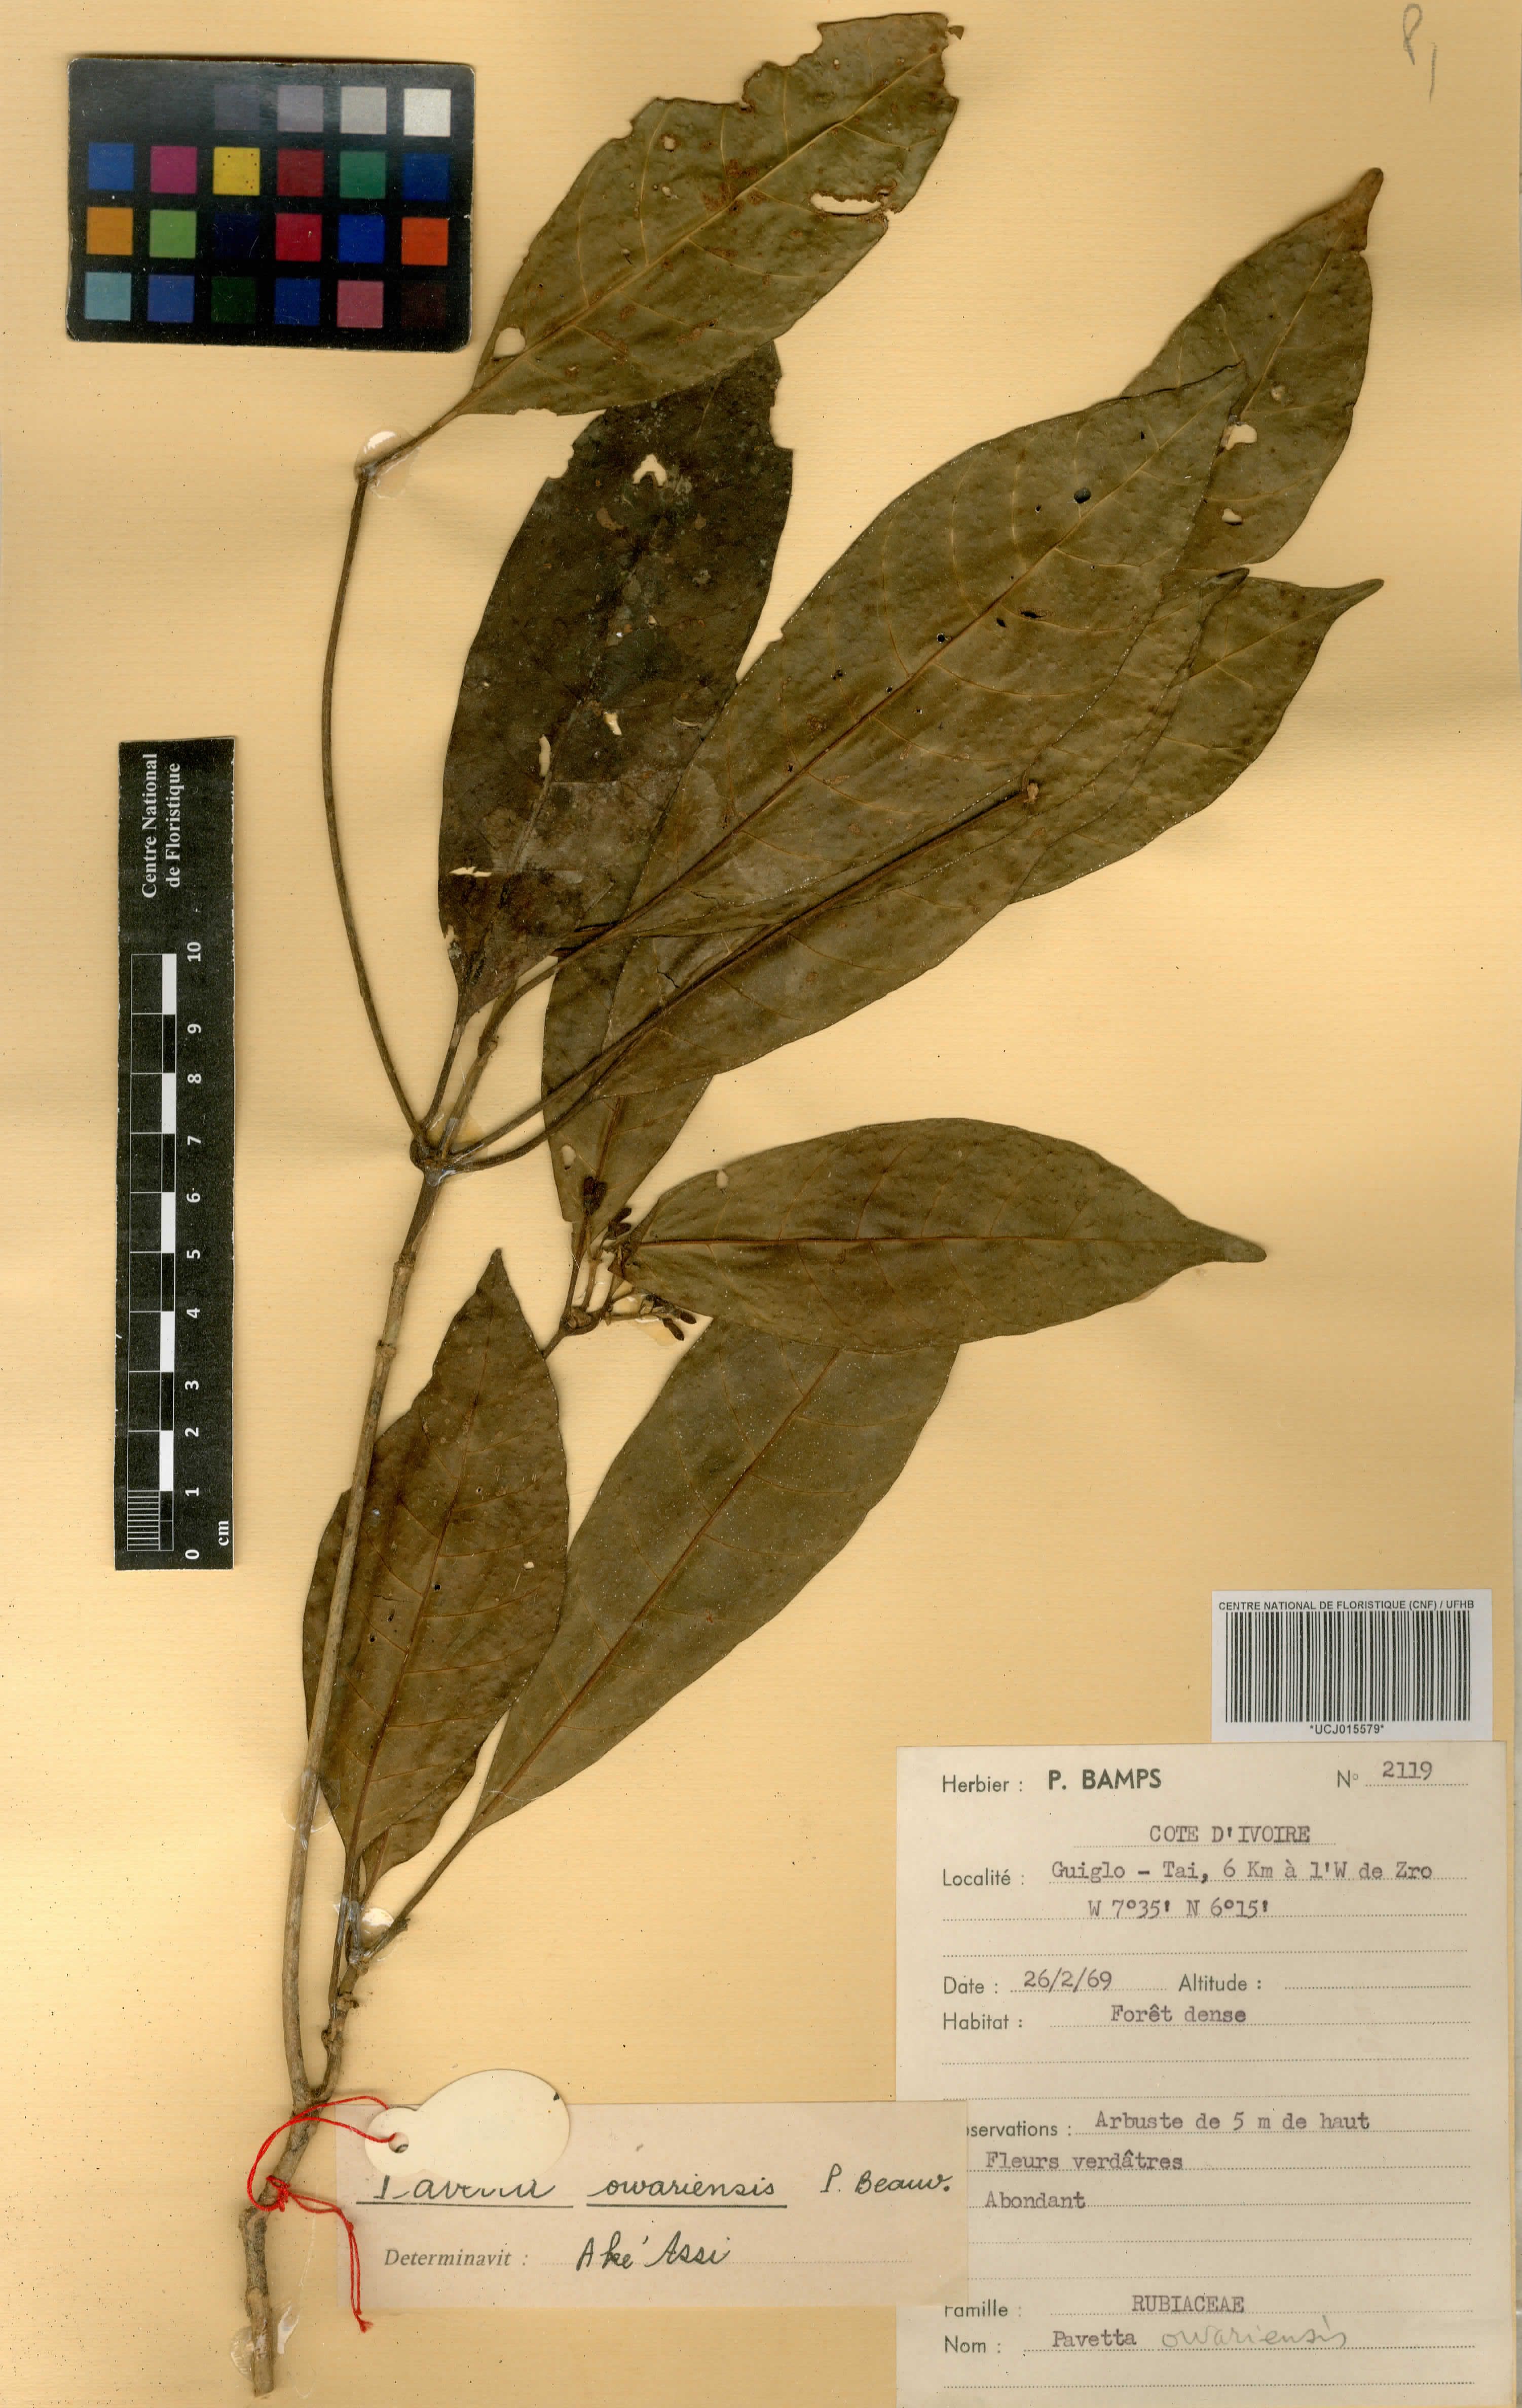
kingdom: Plantae
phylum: Tracheophyta
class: Magnoliopsida
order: Gentianales
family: Rubiaceae
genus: Pavetta
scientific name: Pavetta owariensis
